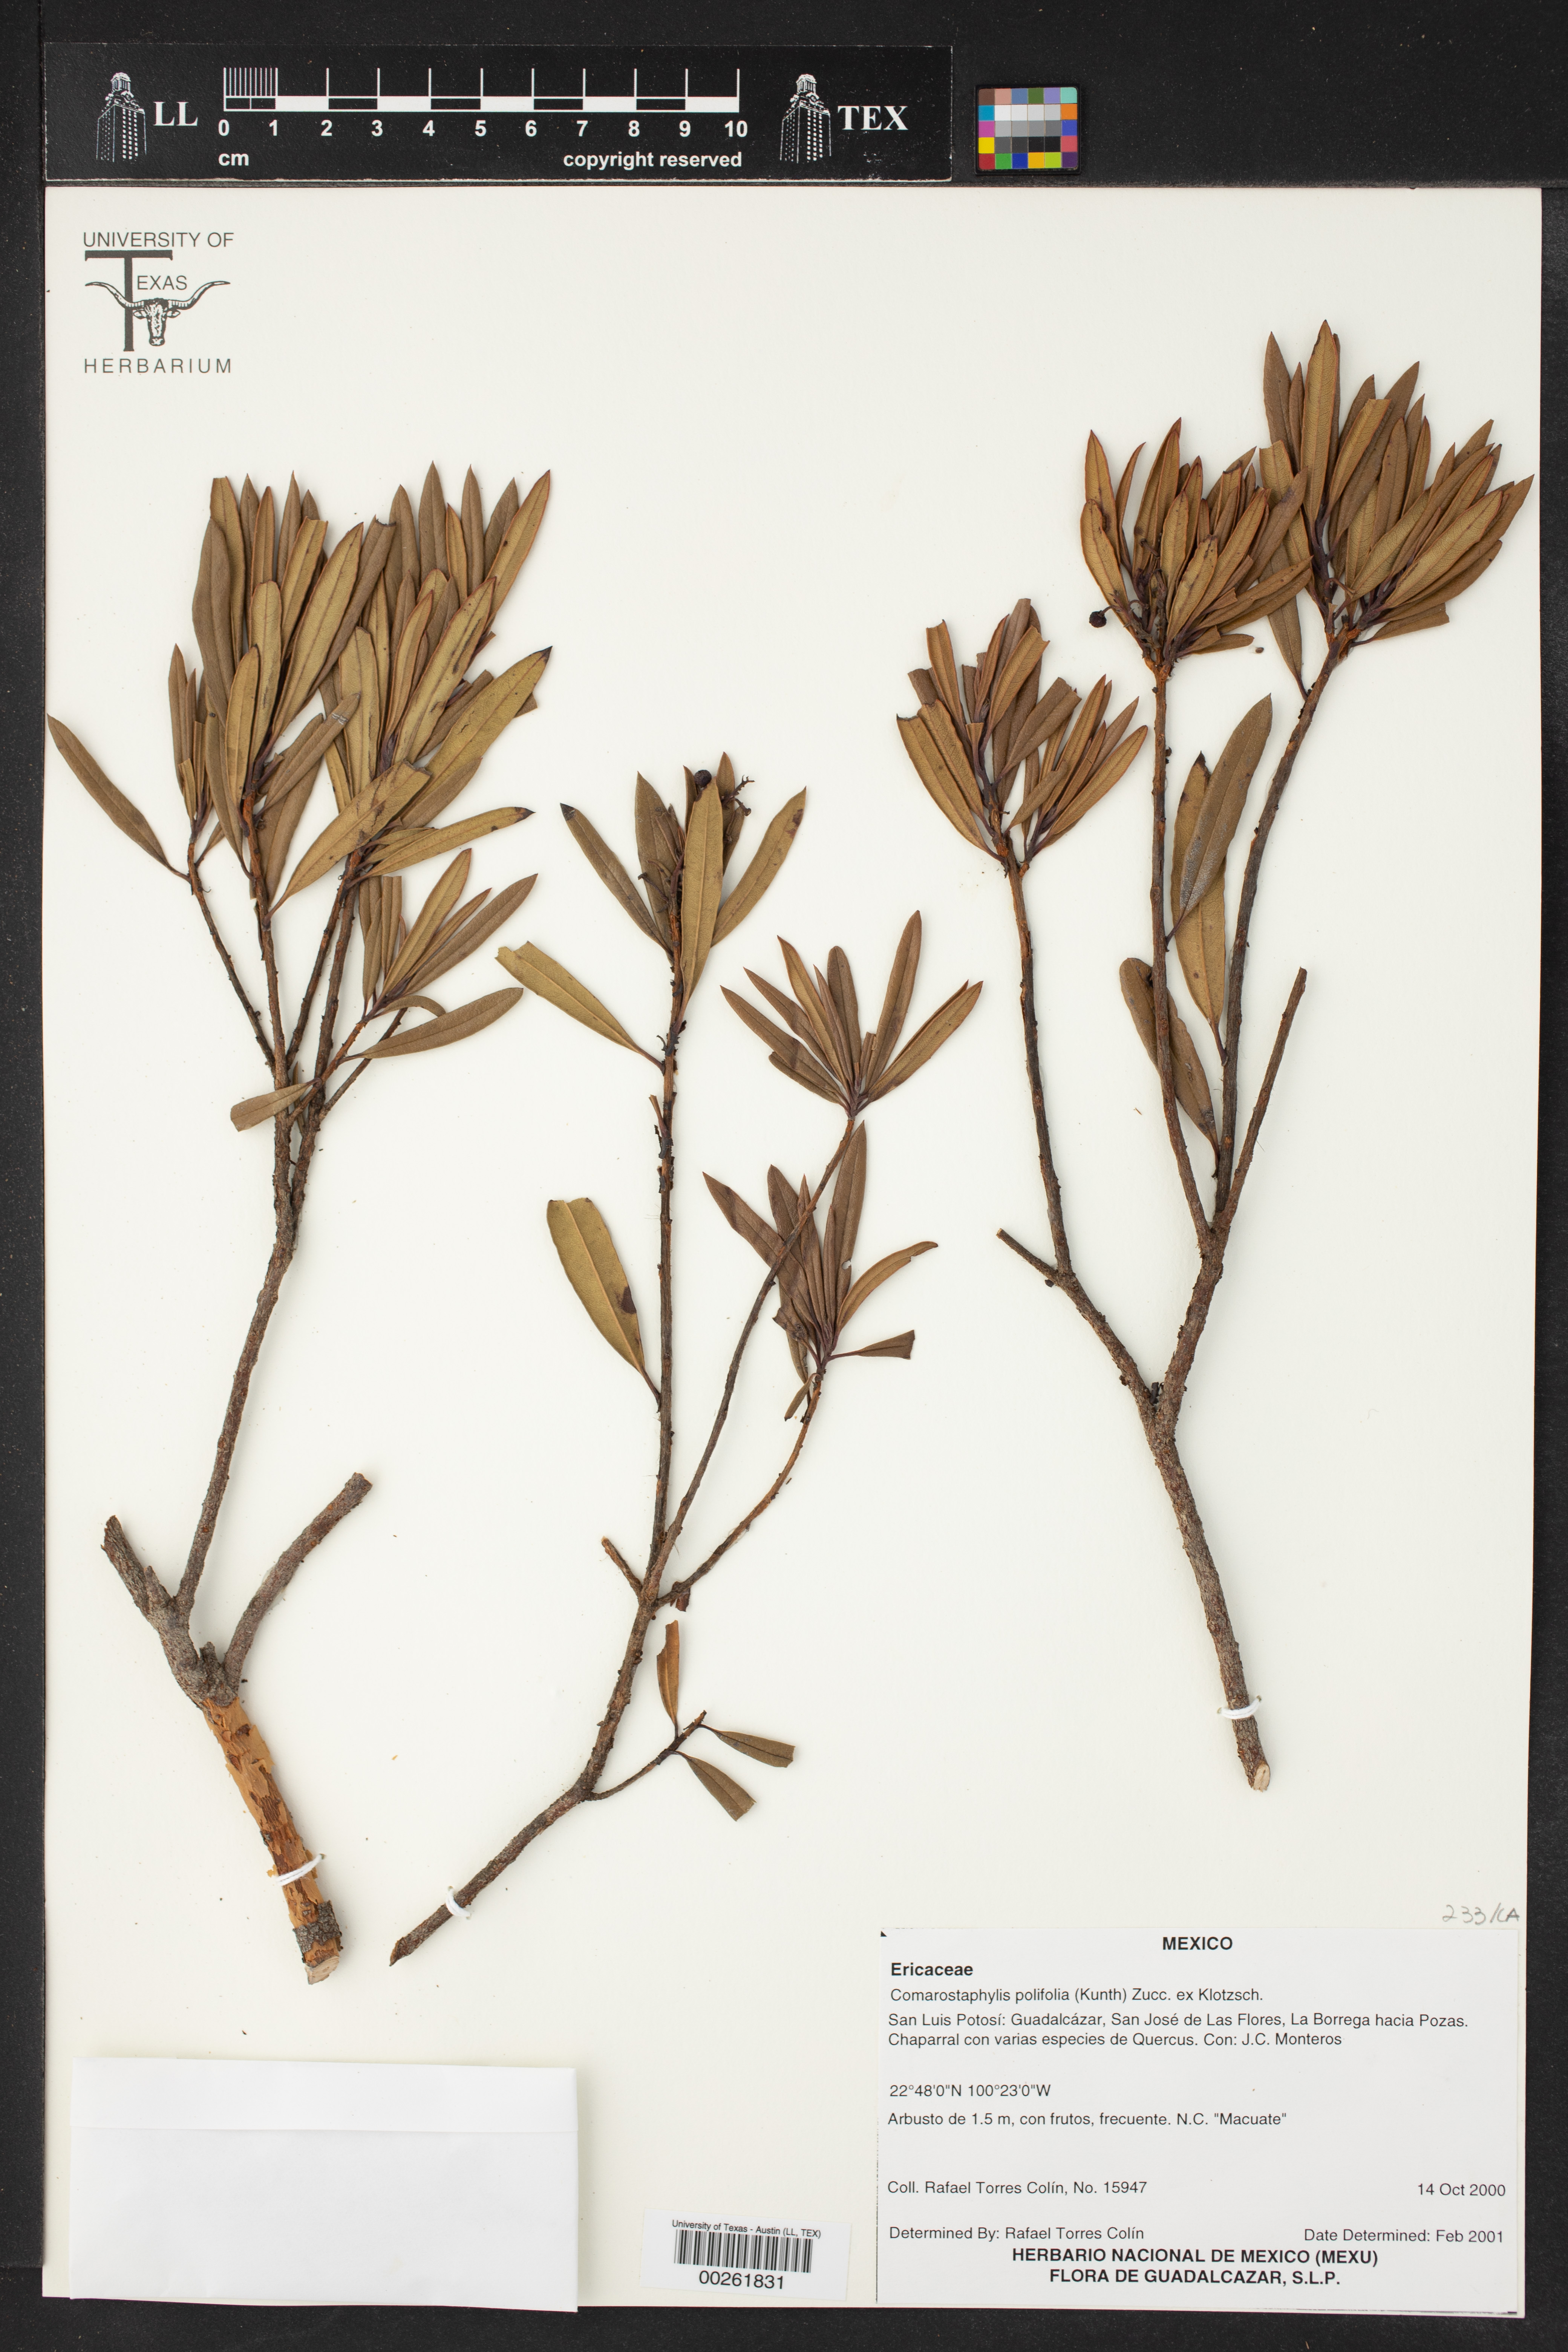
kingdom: Plantae
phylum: Tracheophyta
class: Magnoliopsida
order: Ericales
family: Ericaceae
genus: Comarostaphylis
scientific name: Comarostaphylis polifolia
